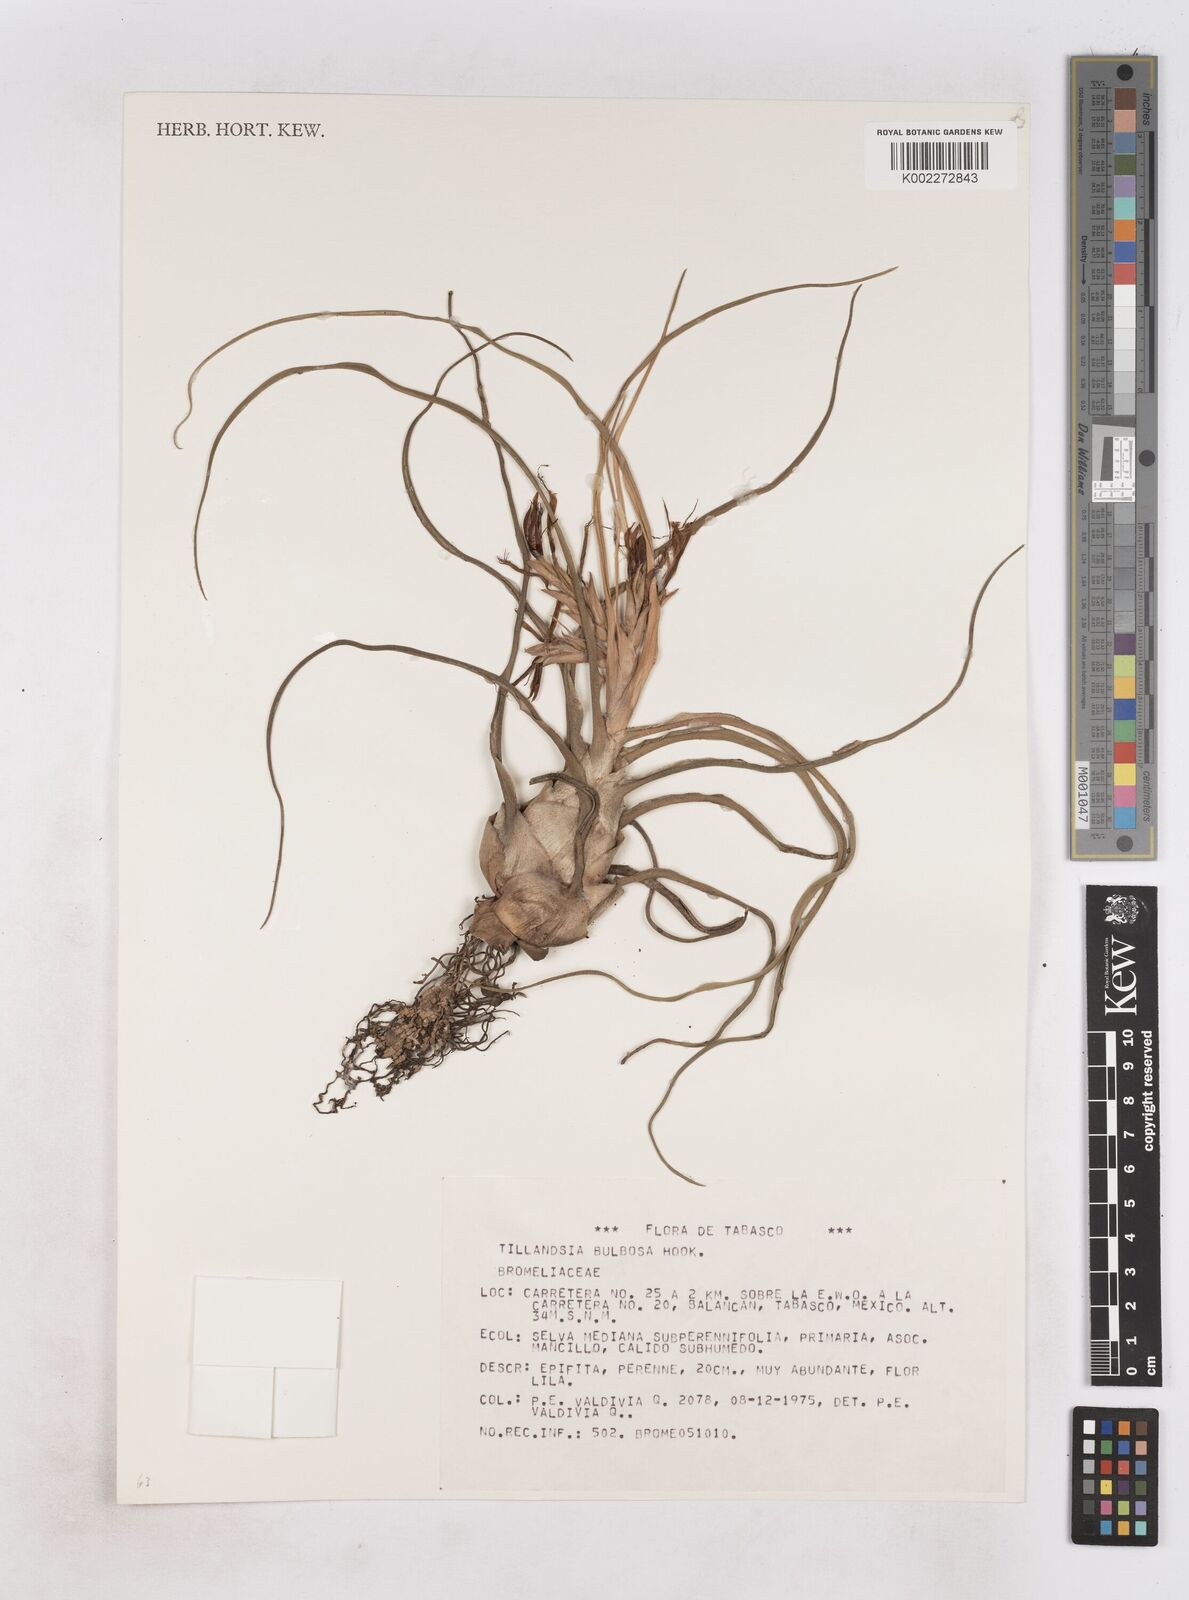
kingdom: Plantae
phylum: Tracheophyta
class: Liliopsida
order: Poales
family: Bromeliaceae
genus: Tillandsia
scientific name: Tillandsia bulbosa
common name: Bulbous airplant
